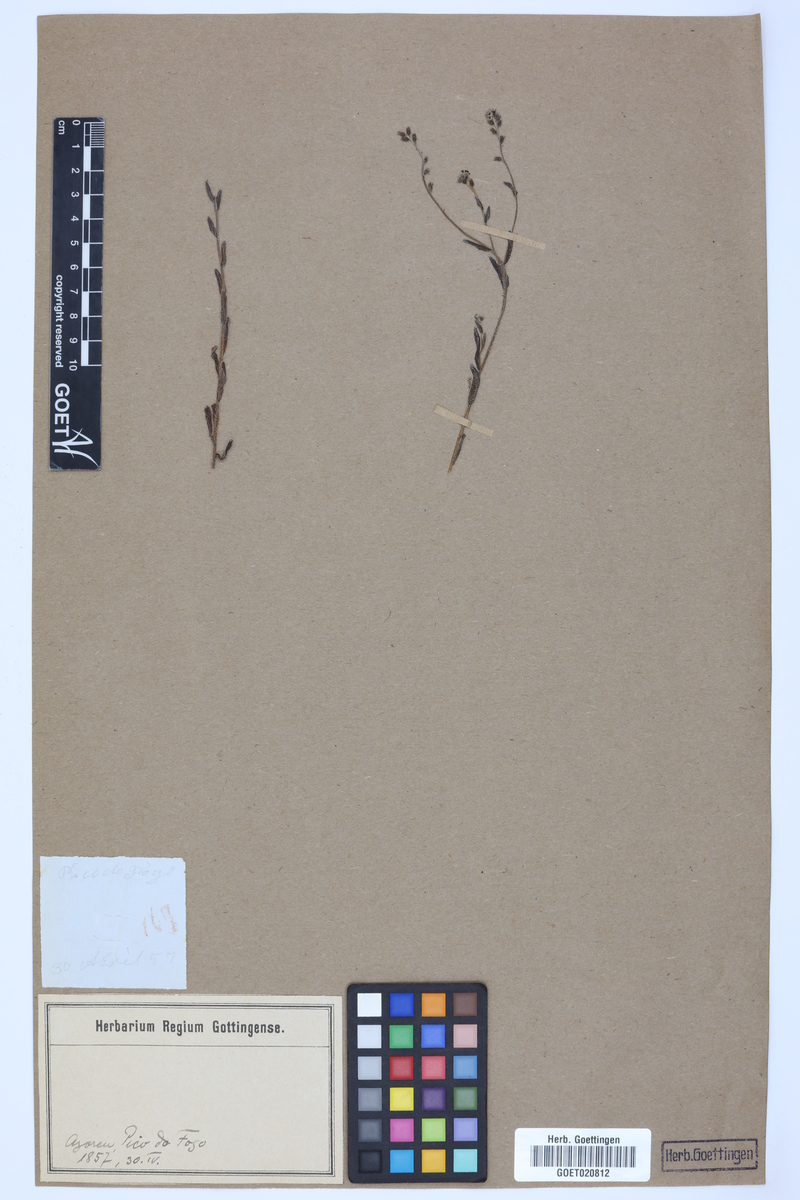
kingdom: Plantae
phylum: Tracheophyta
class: Magnoliopsida
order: Boraginales
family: Boraginaceae
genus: Myosotis
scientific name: Myosotis
